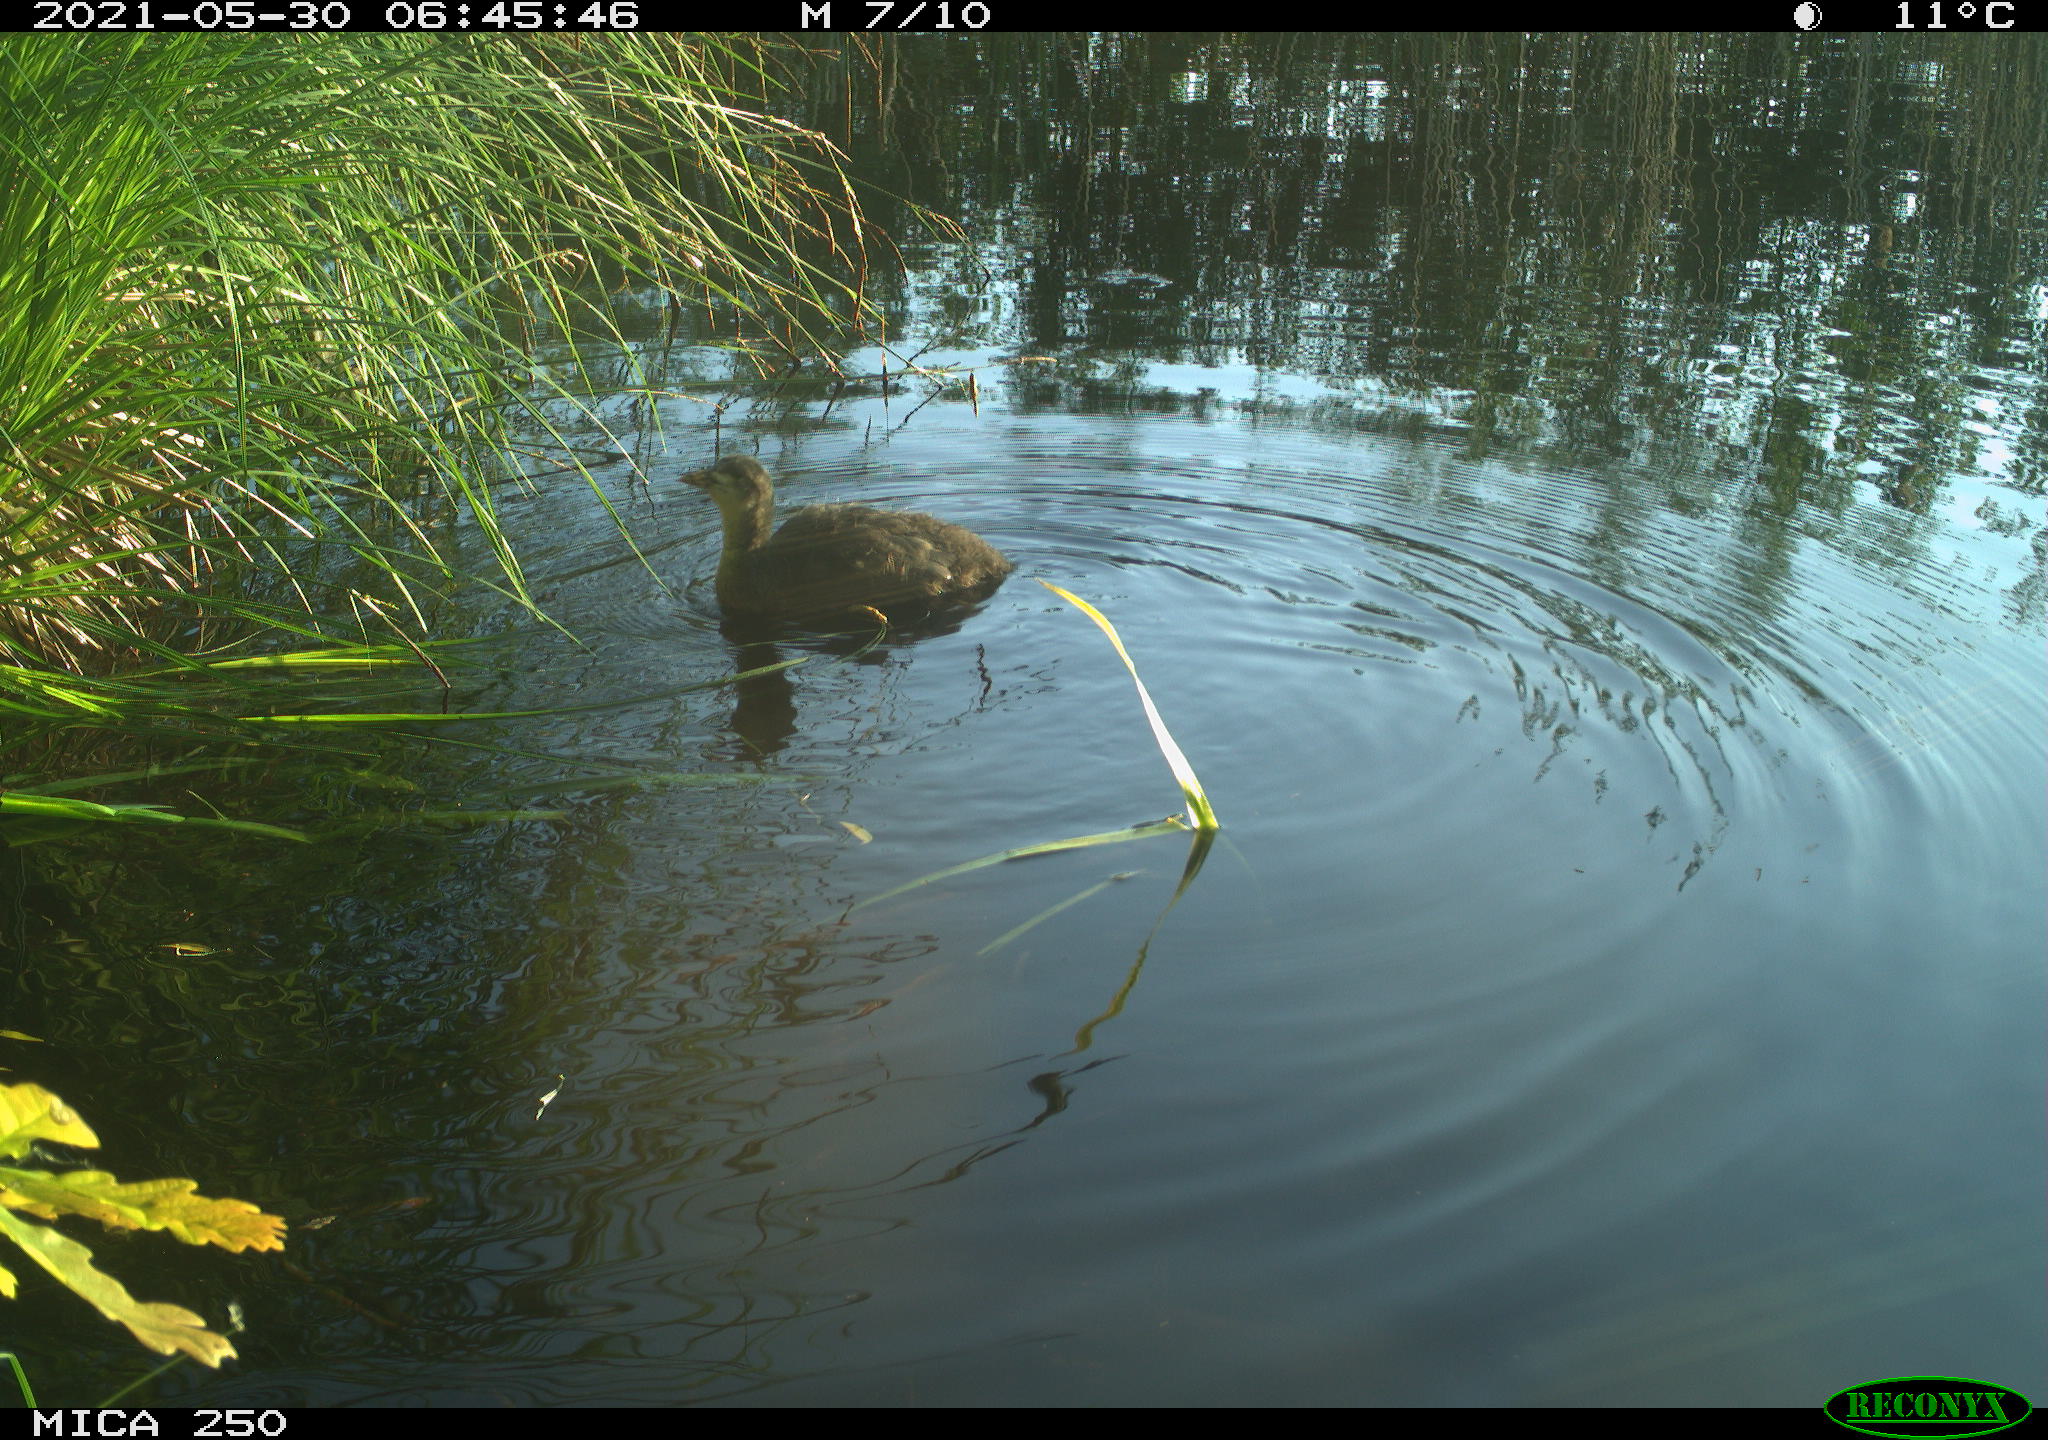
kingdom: Animalia
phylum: Chordata
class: Aves
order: Anseriformes
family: Anatidae
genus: Mareca
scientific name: Mareca strepera
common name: Gadwall
